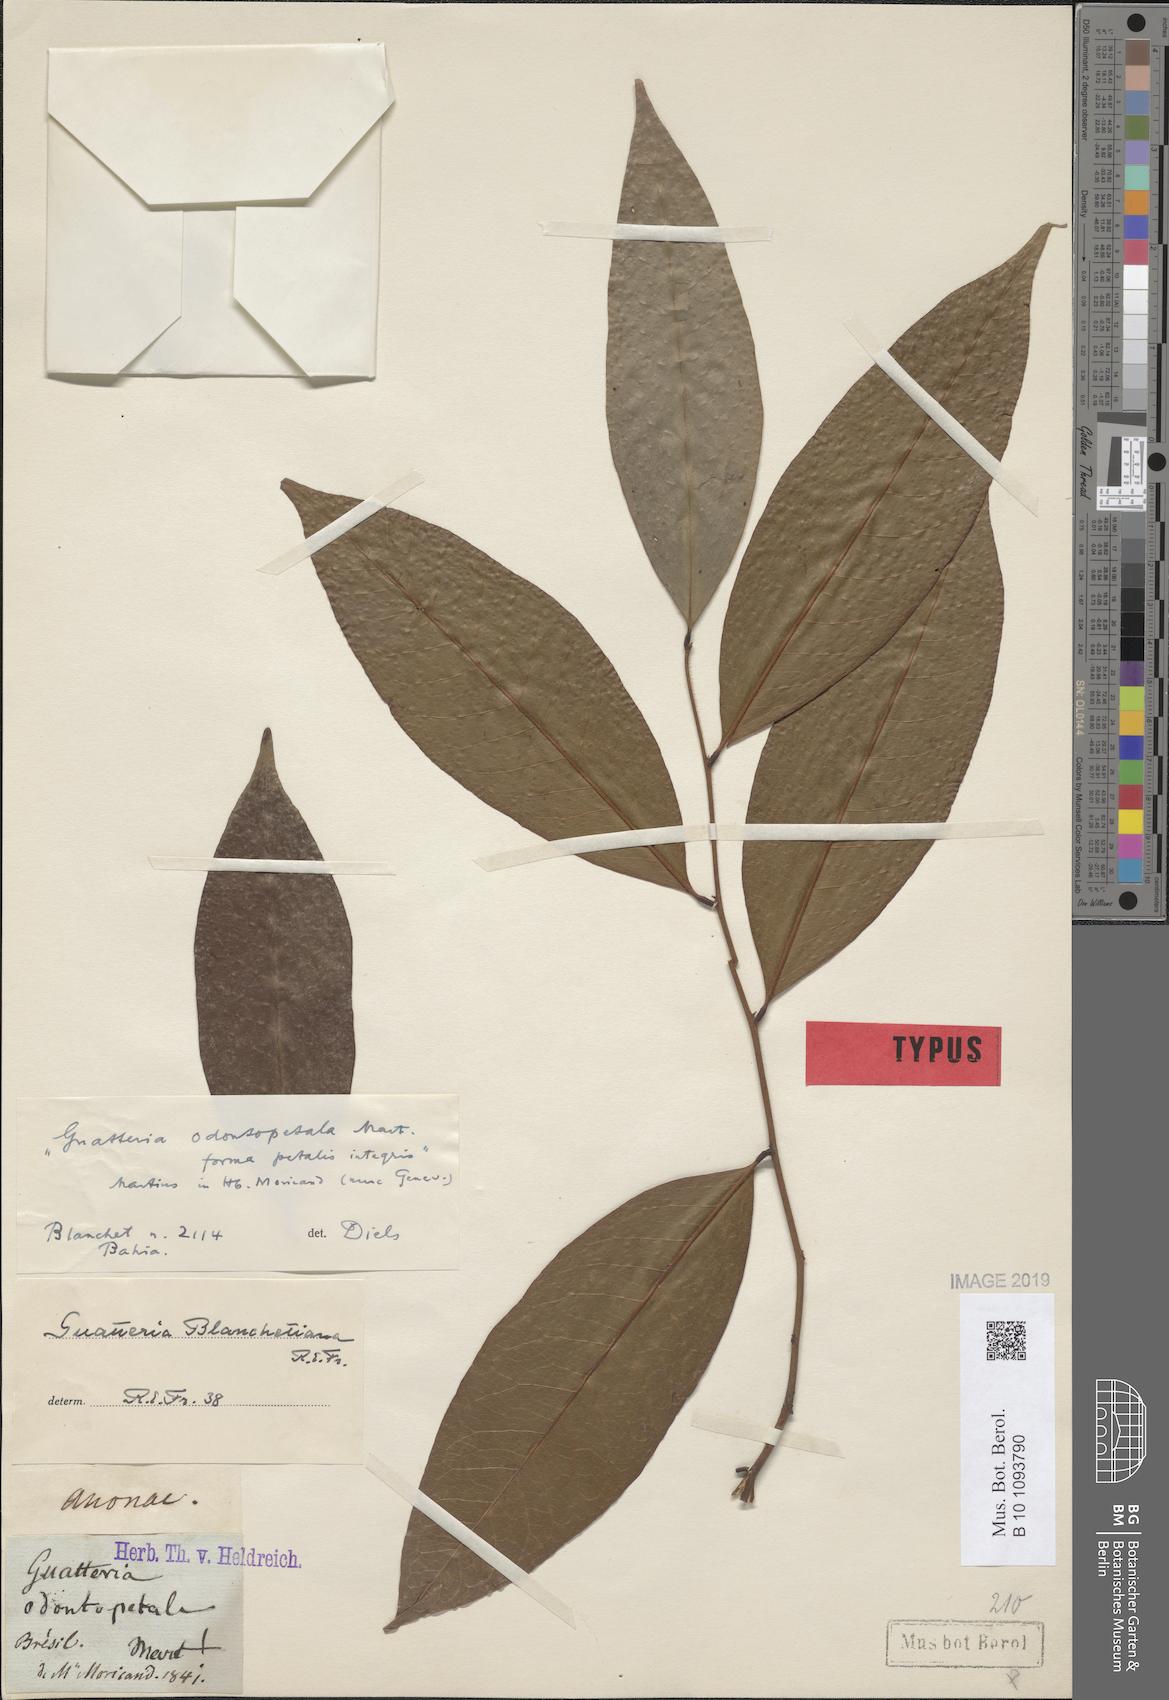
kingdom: Plantae
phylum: Tracheophyta
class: Magnoliopsida
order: Magnoliales
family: Annonaceae
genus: Guatteria
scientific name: Guatteria australis
